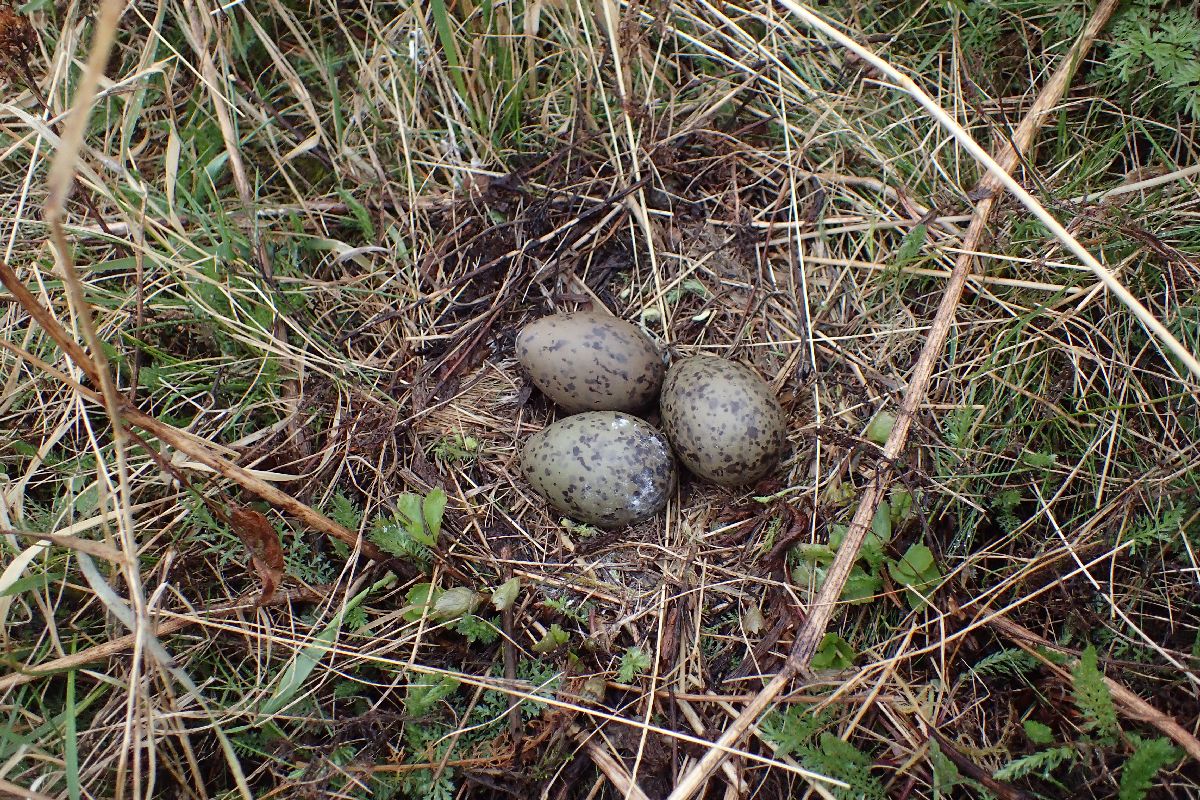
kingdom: Animalia
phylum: Chordata
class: Aves
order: Charadriiformes
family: Haematopodidae
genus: Haematopus
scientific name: Haematopus ostralegus
